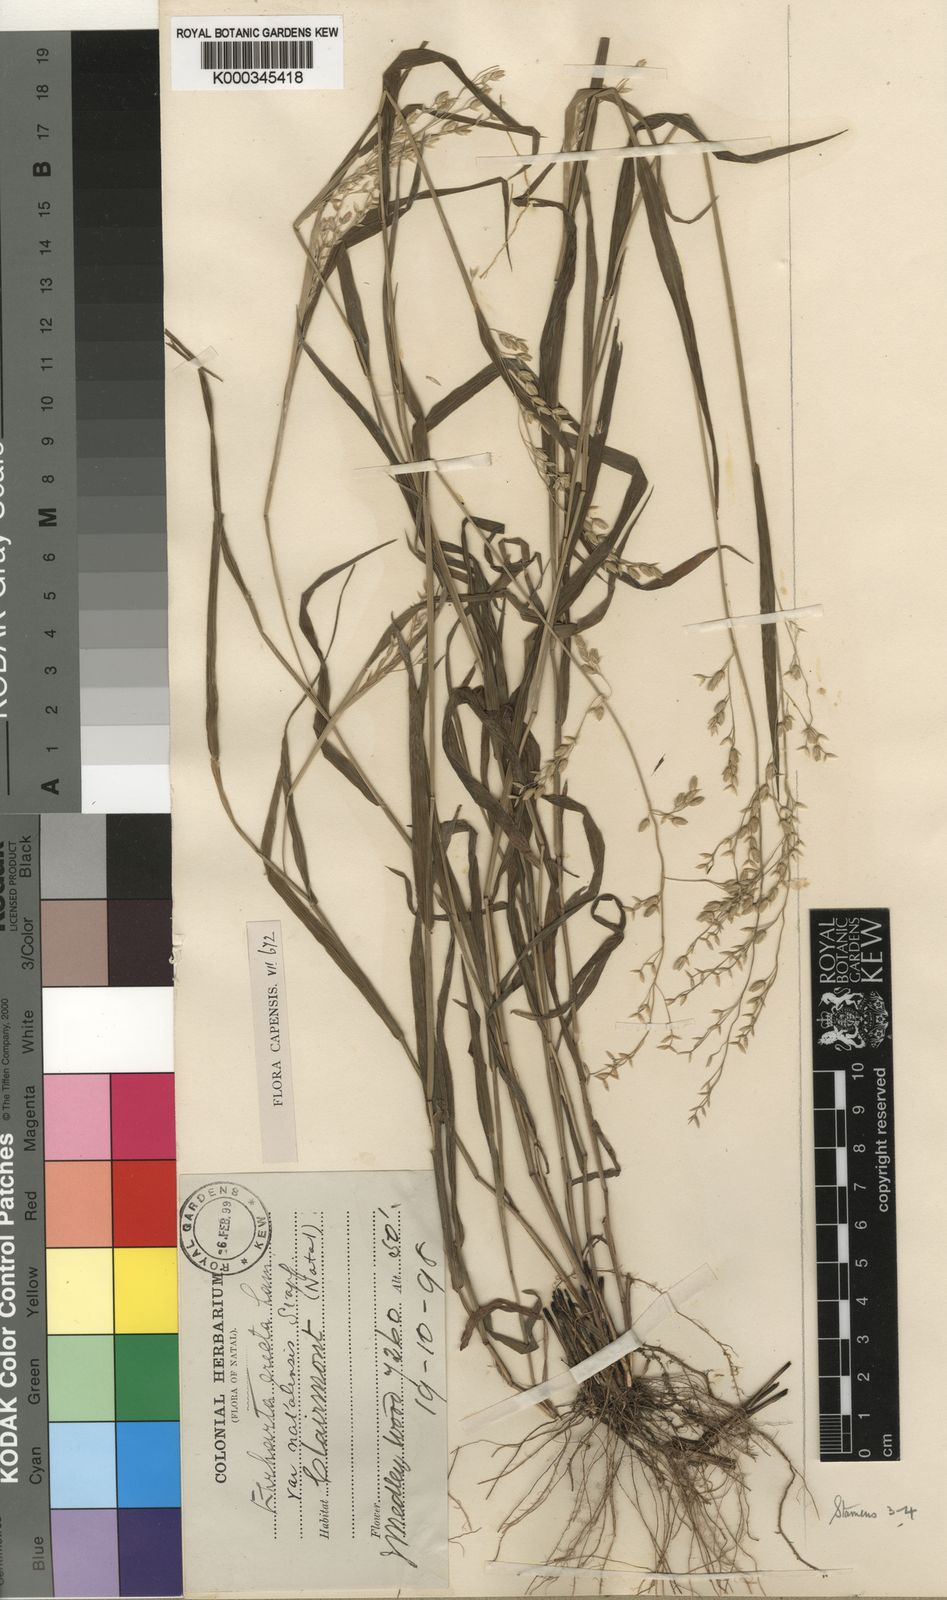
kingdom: Plantae
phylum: Tracheophyta
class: Liliopsida
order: Poales
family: Poaceae
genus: Ehrharta
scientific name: Ehrharta erecta
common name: Panic veldtgrass
